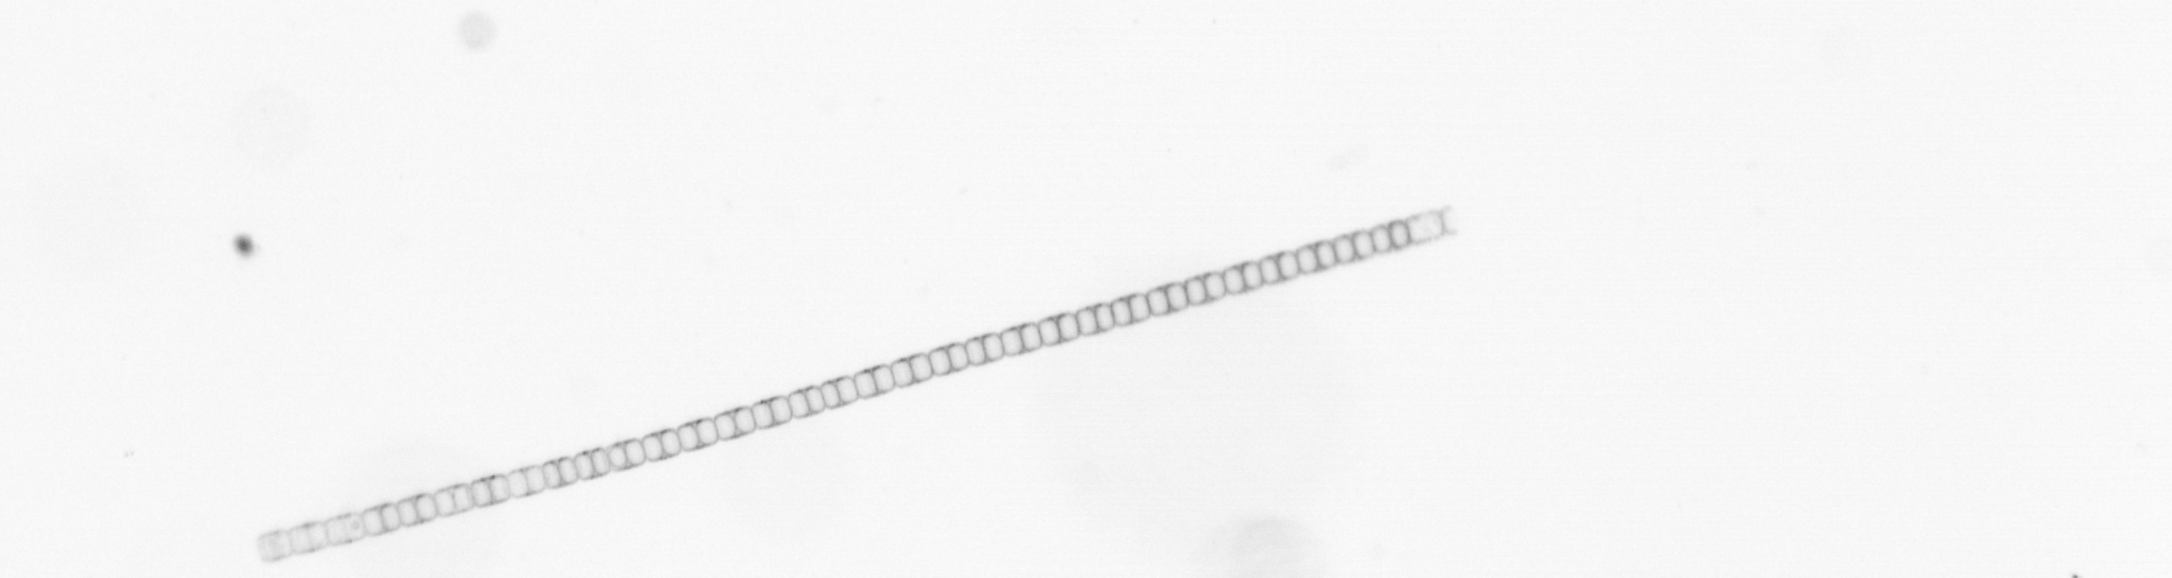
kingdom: Chromista
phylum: Ochrophyta
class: Bacillariophyceae
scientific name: Bacillariophyceae
